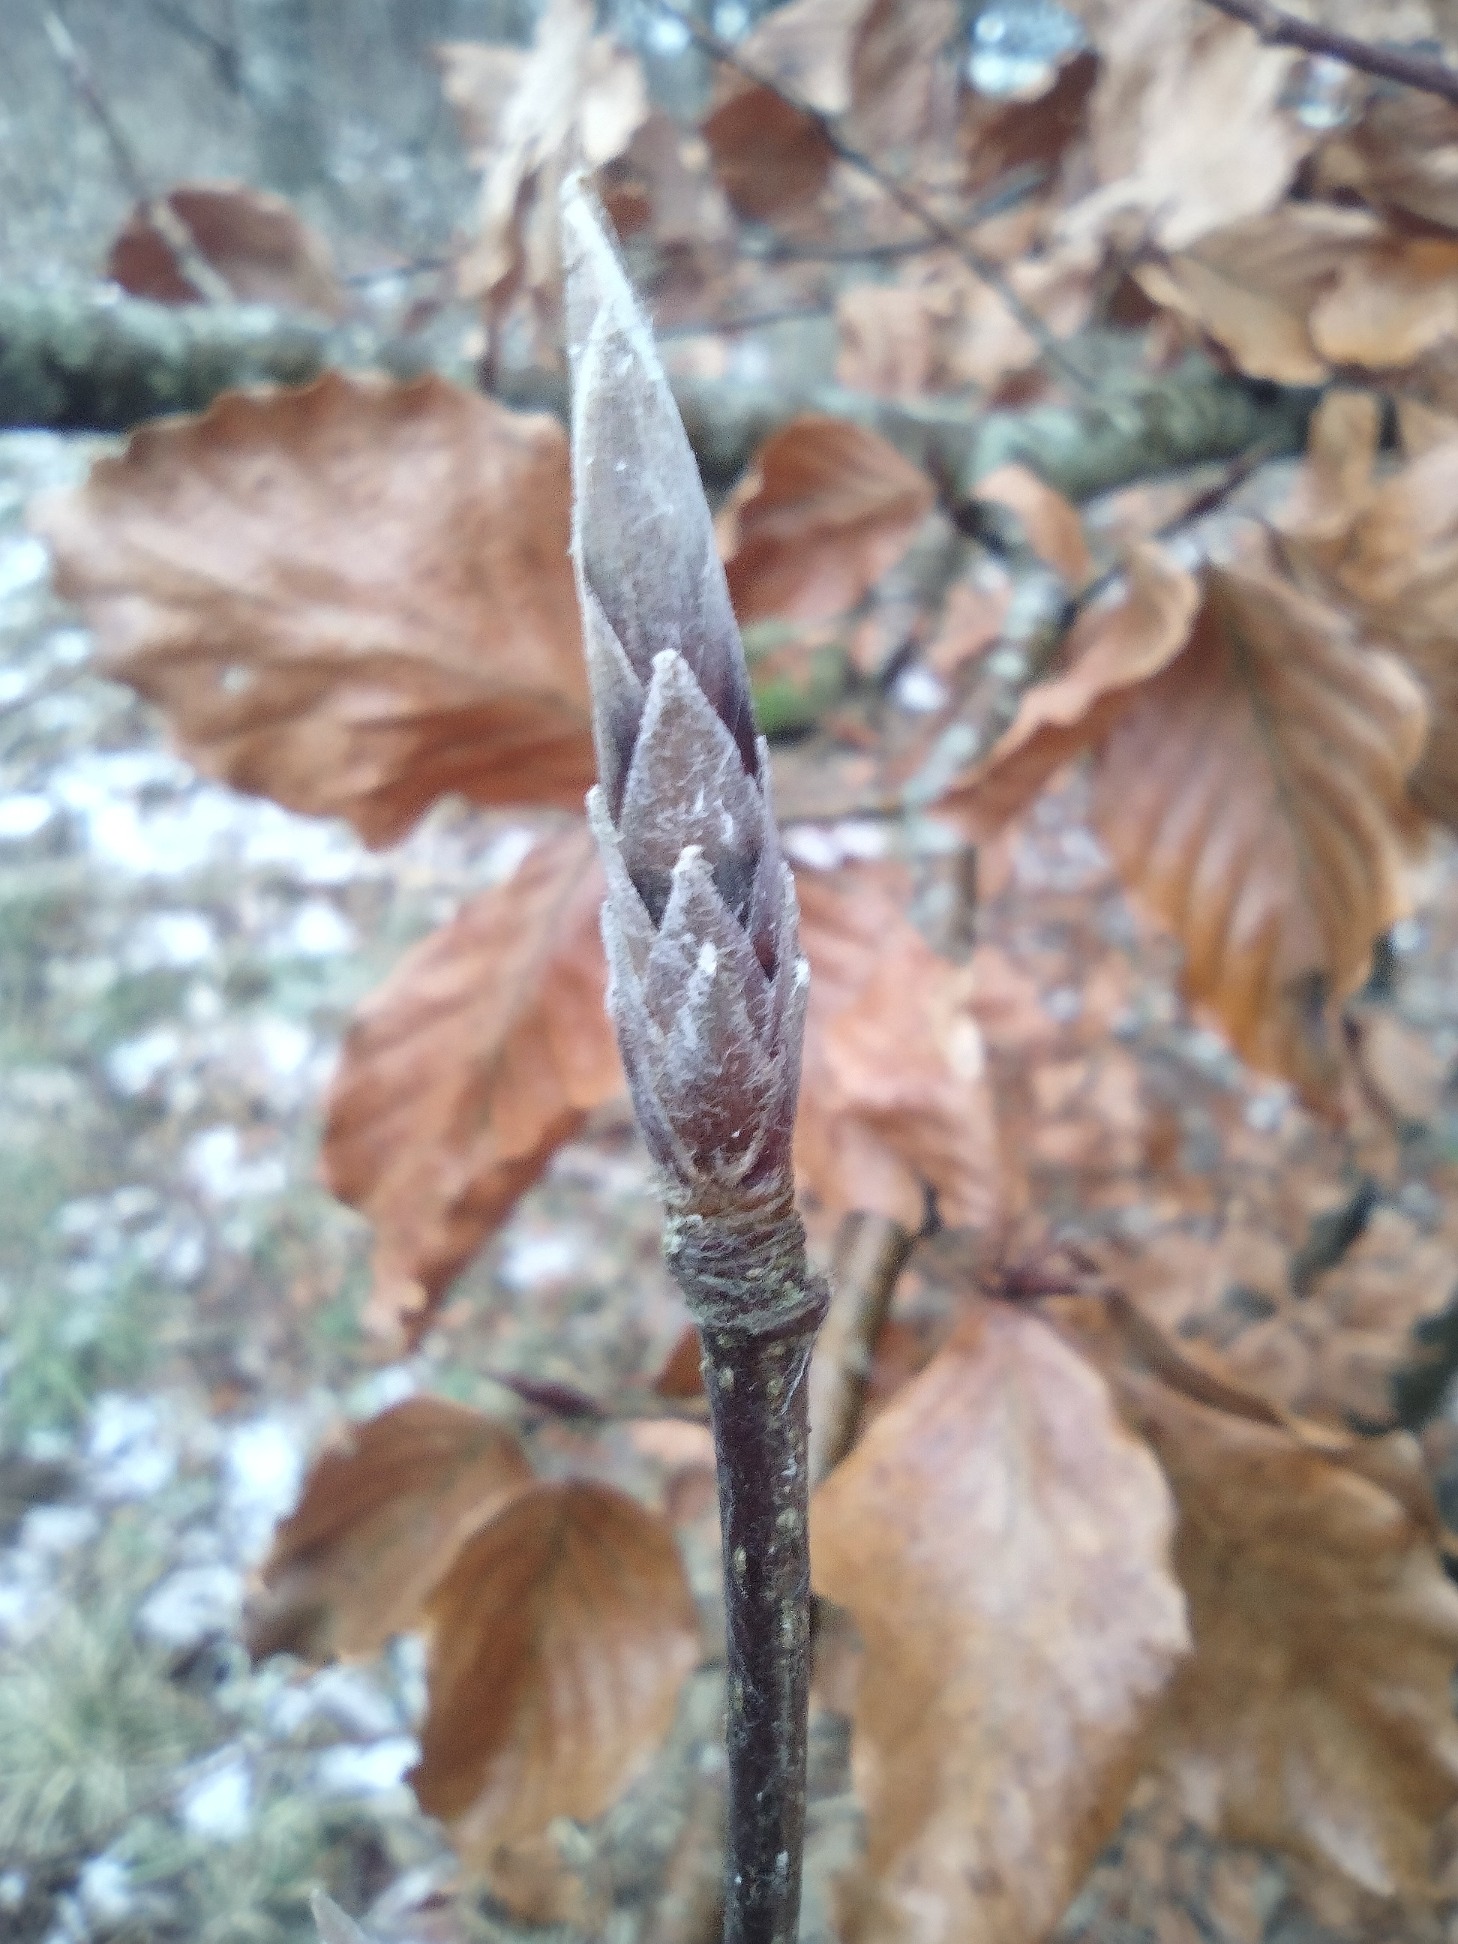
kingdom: Plantae
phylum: Tracheophyta
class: Magnoliopsida
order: Fagales
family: Fagaceae
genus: Fagus
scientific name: Fagus sylvatica
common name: Bøg
